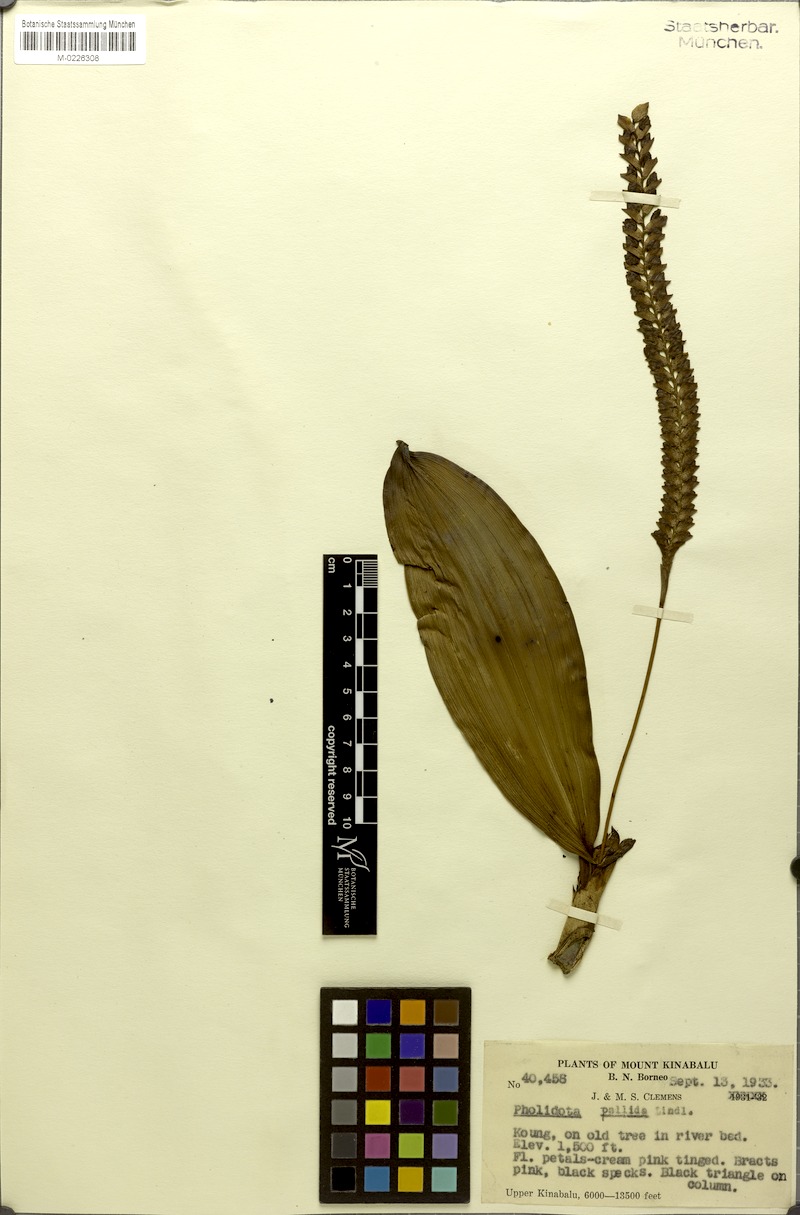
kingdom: Plantae
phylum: Tracheophyta
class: Liliopsida
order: Asparagales
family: Orchidaceae
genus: Coelogyne
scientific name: Coelogyne pallida
